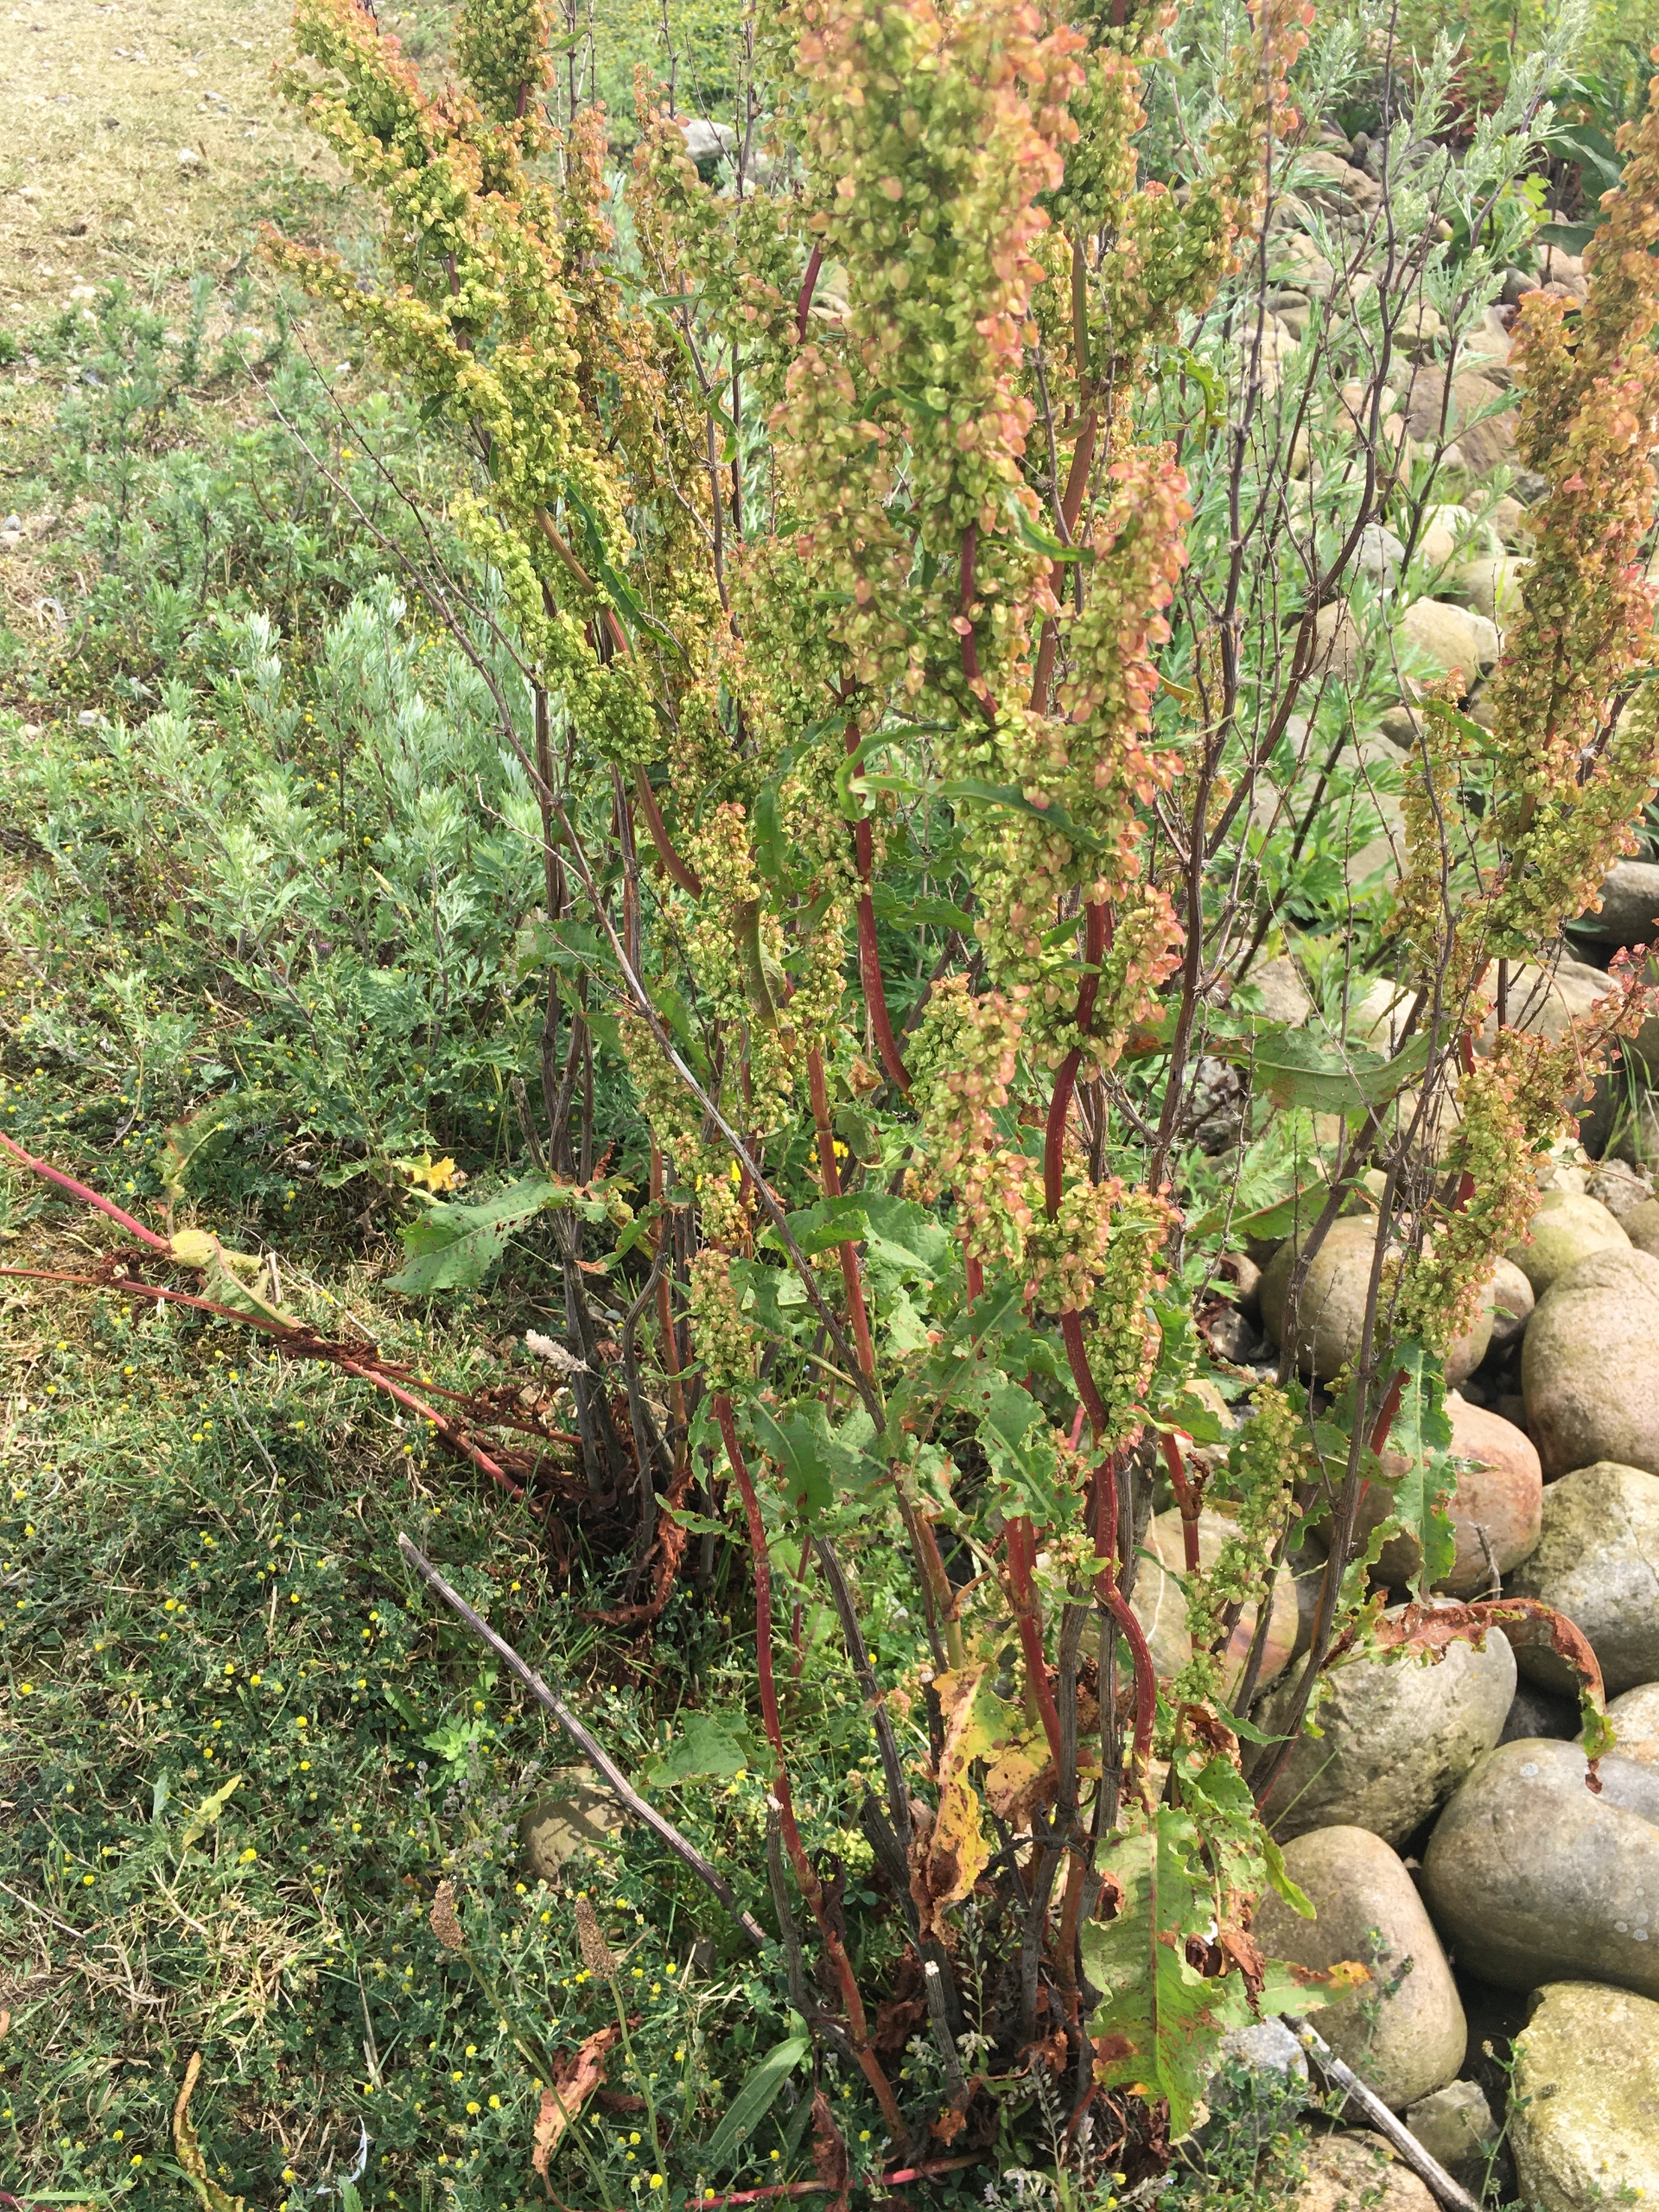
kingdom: Plantae
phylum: Tracheophyta
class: Magnoliopsida
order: Caryophyllales
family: Polygonaceae
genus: Rumex
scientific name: Rumex crispus
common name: Kruset skræppe
